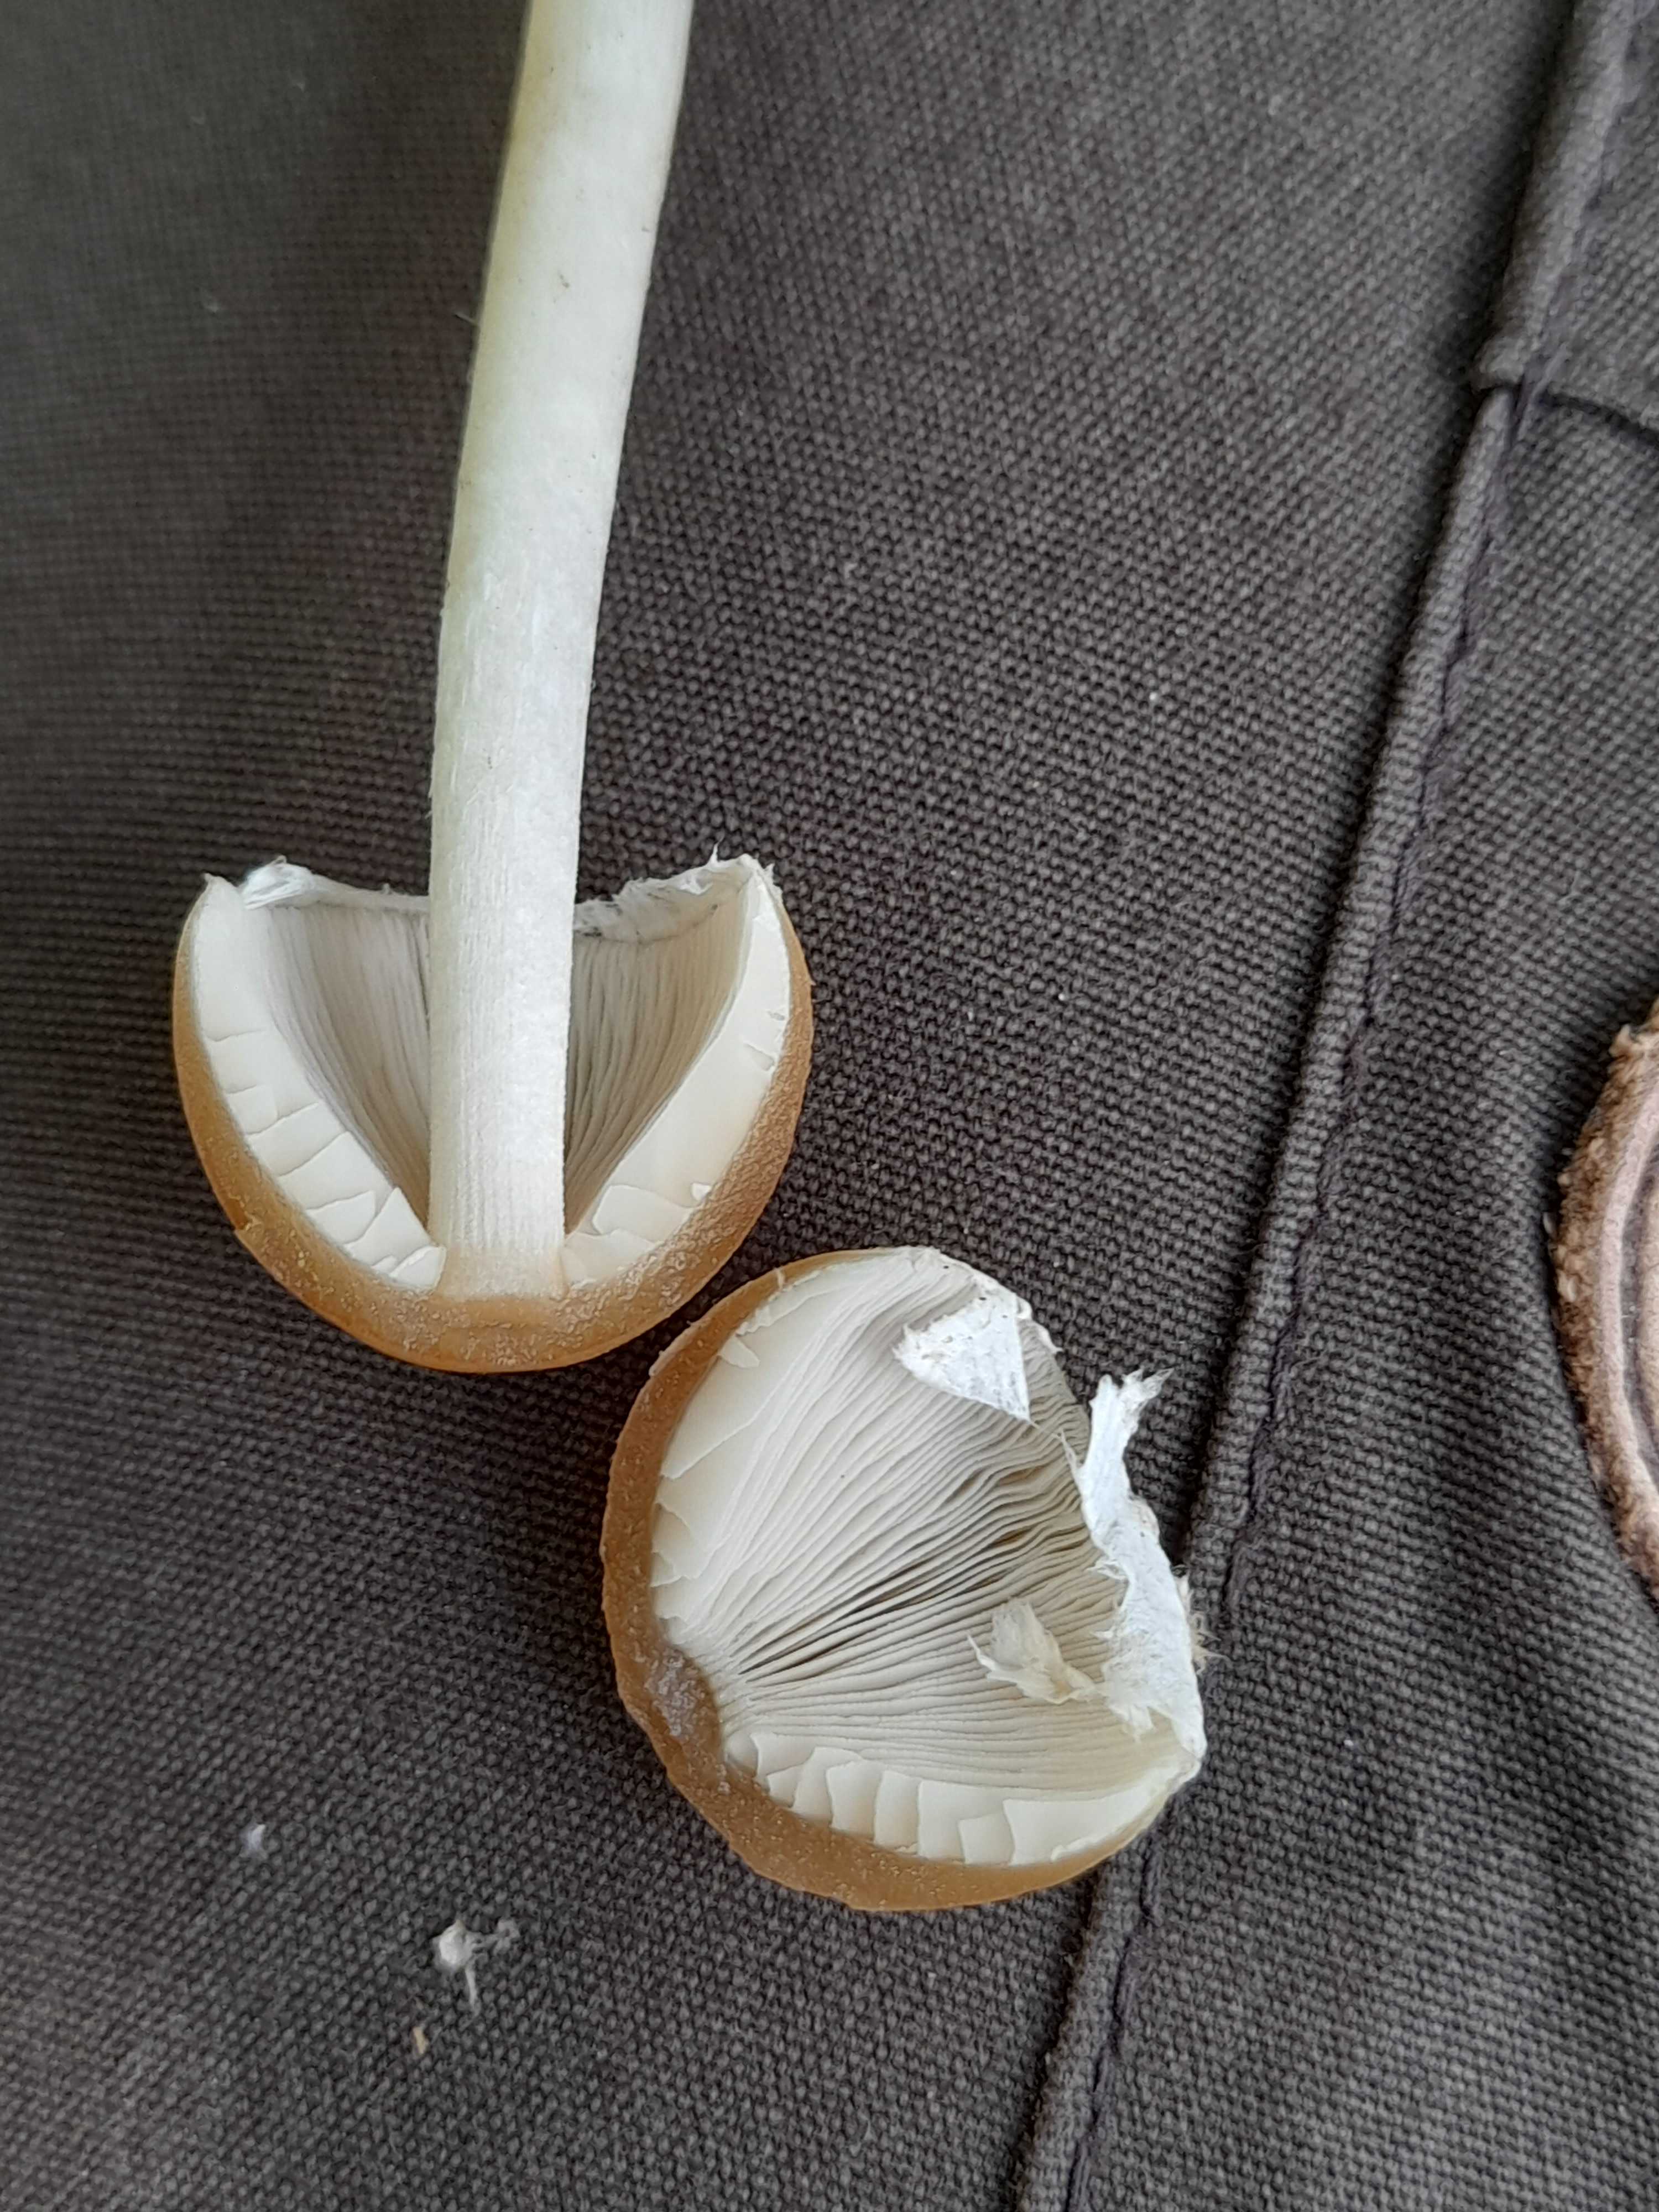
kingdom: Fungi
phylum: Basidiomycota
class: Agaricomycetes
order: Agaricales
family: Psathyrellaceae
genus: Candolleomyces
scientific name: Candolleomyces candolleanus
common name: Candolles mørkhat
